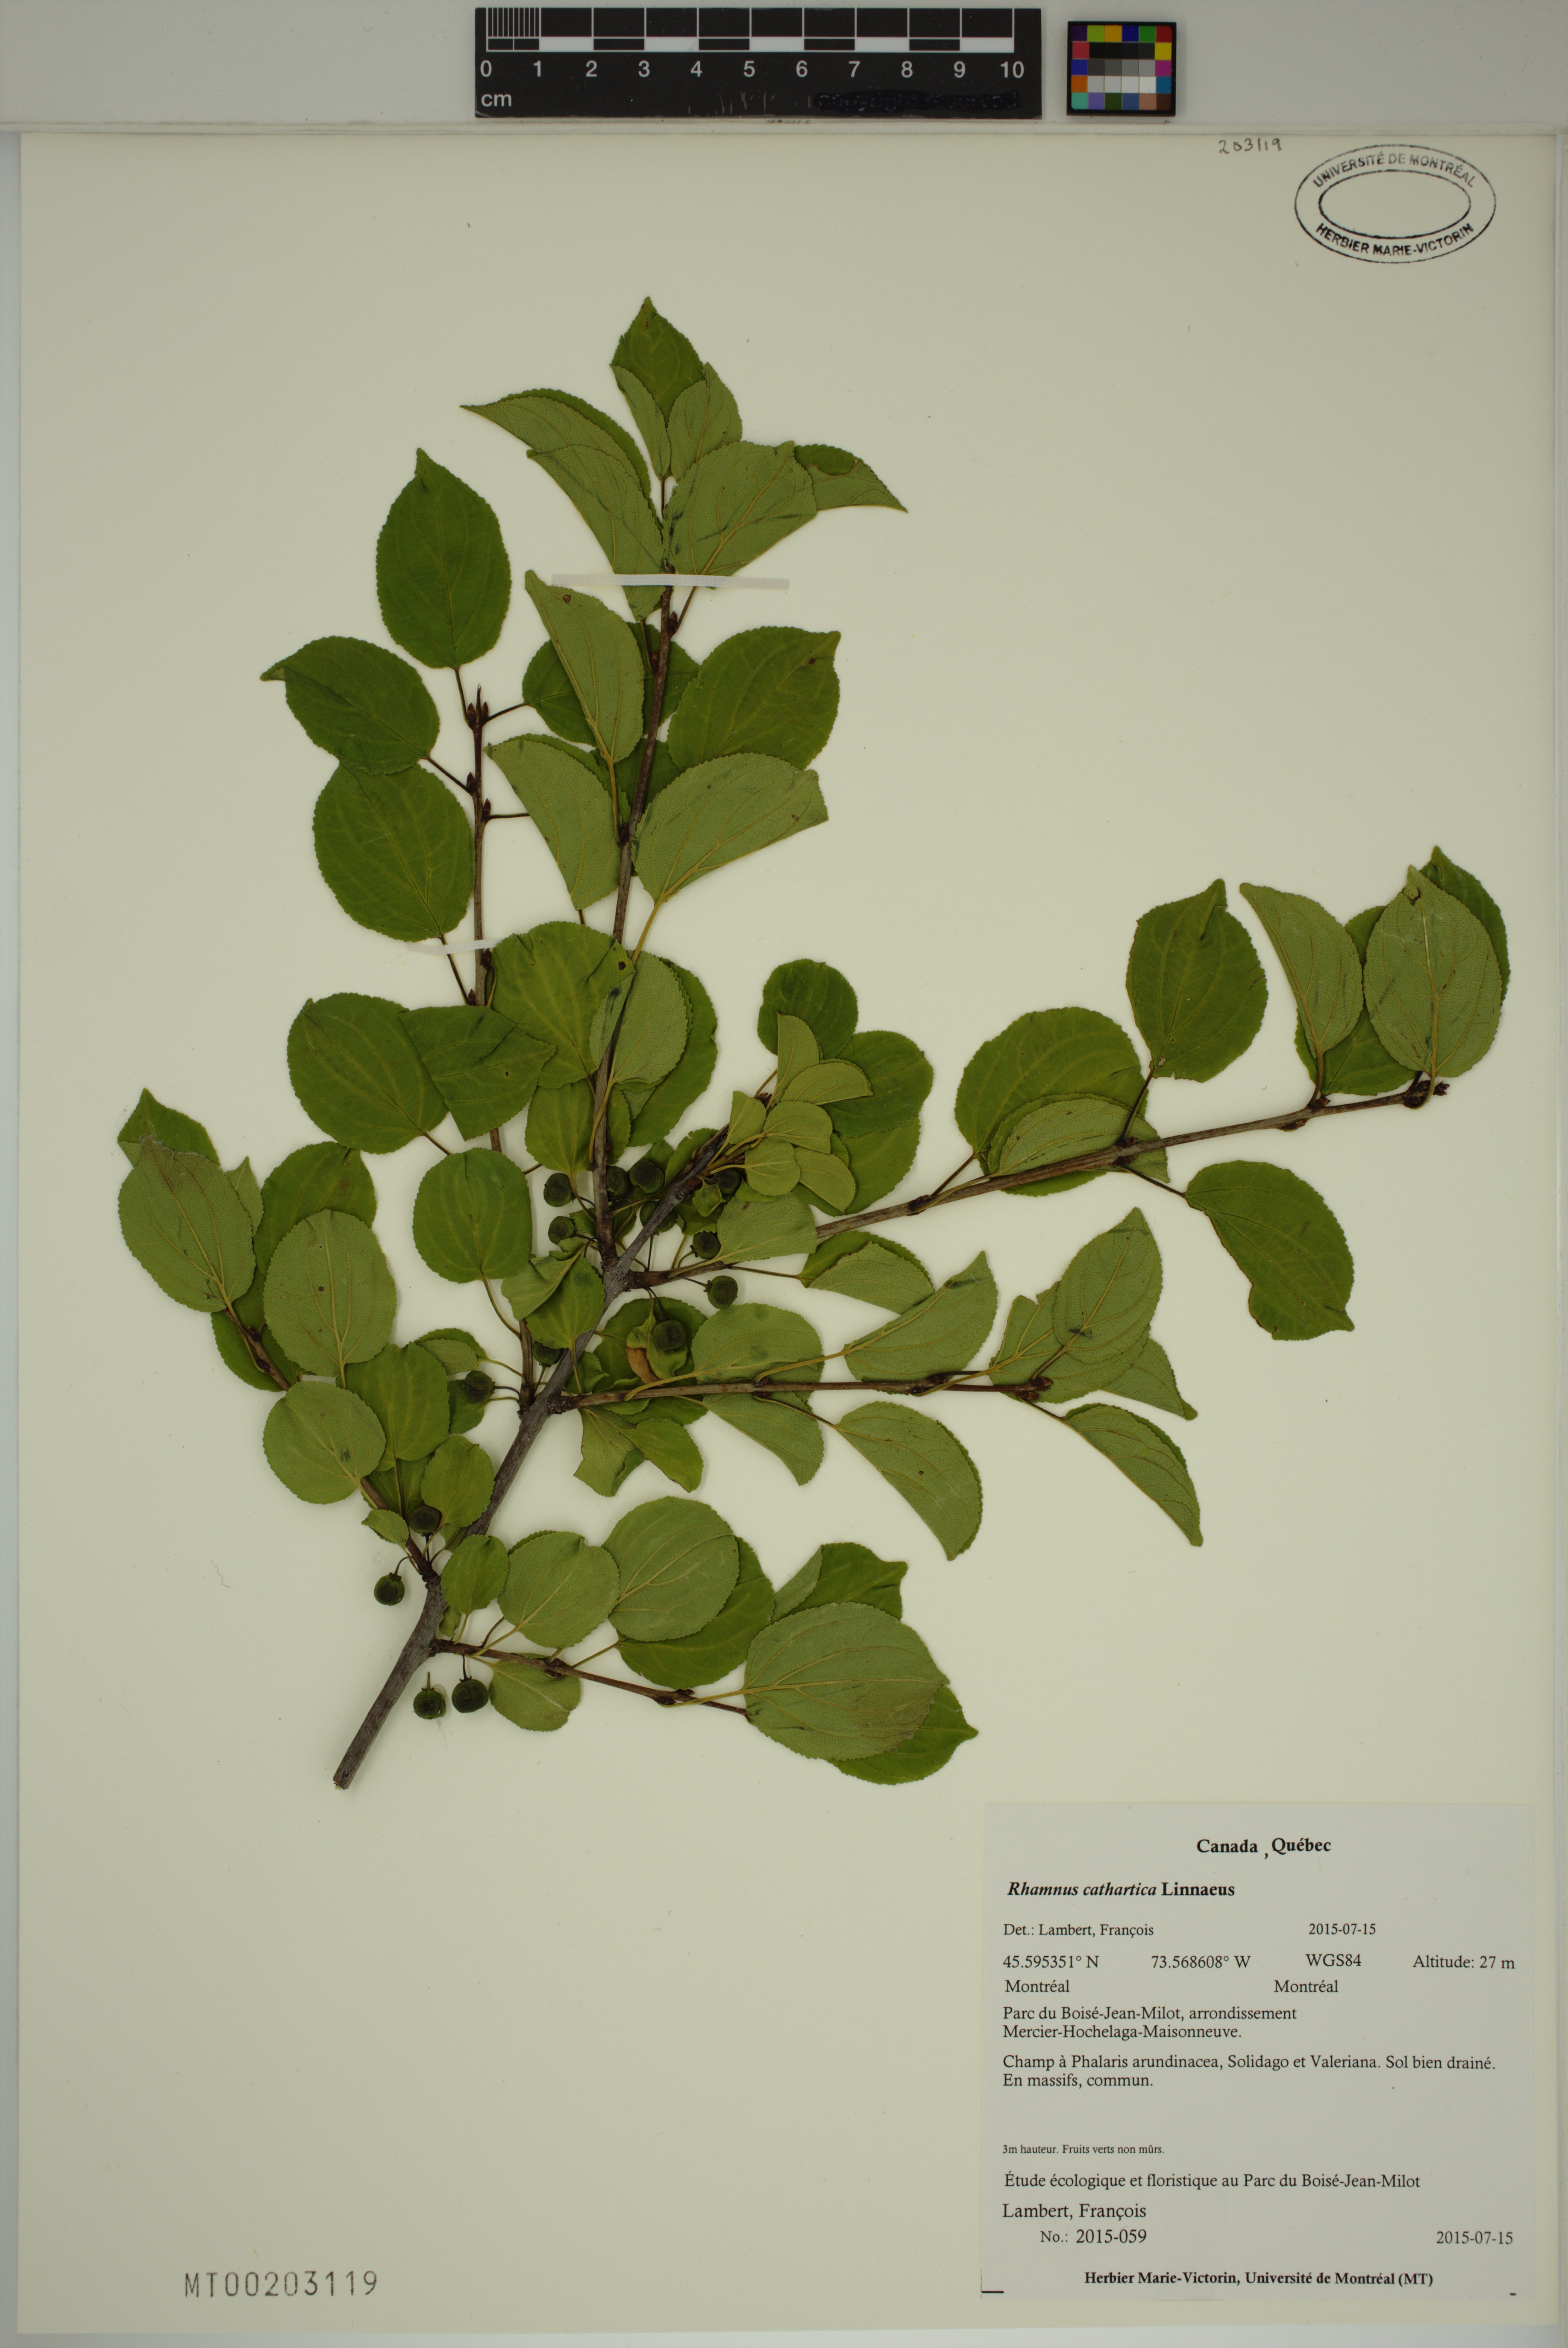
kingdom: Plantae
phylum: Tracheophyta
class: Magnoliopsida
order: Rosales
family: Rhamnaceae
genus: Rhamnus
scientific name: Rhamnus cathartica
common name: Common buckthorn
